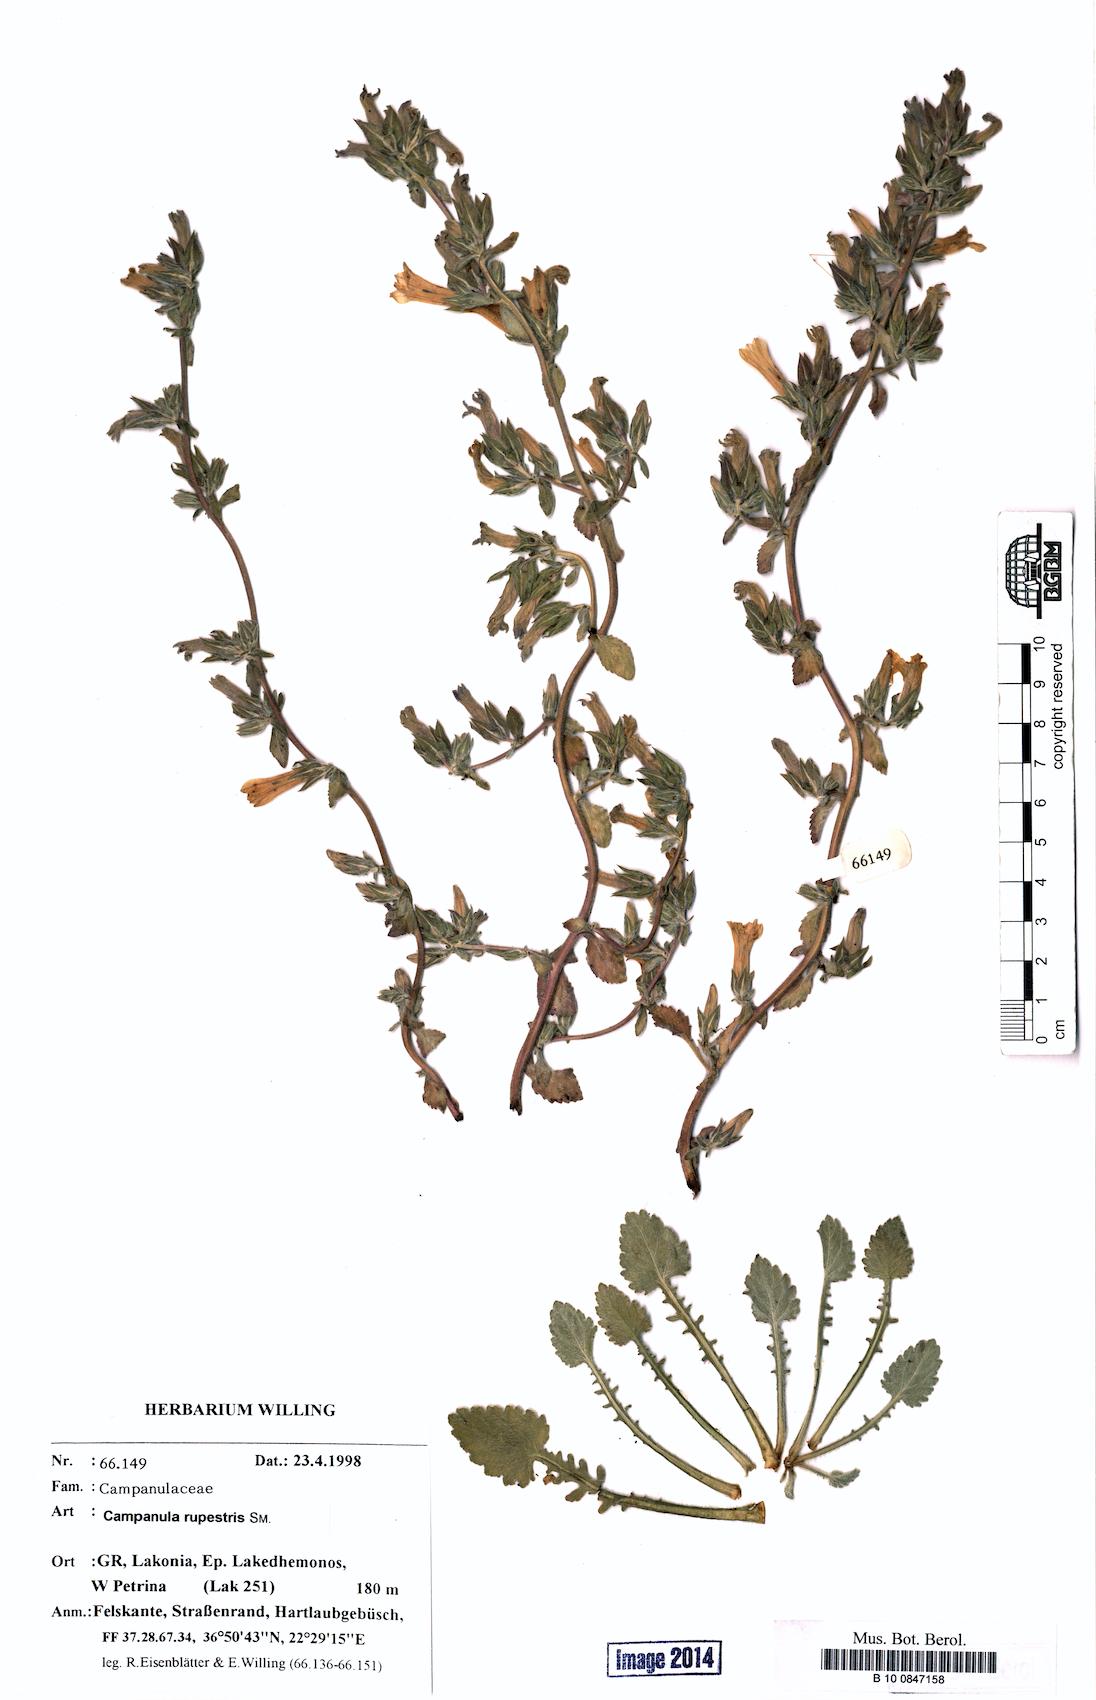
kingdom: Plantae
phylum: Tracheophyta
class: Magnoliopsida
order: Asterales
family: Campanulaceae
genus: Campanula
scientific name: Campanula rupestris
